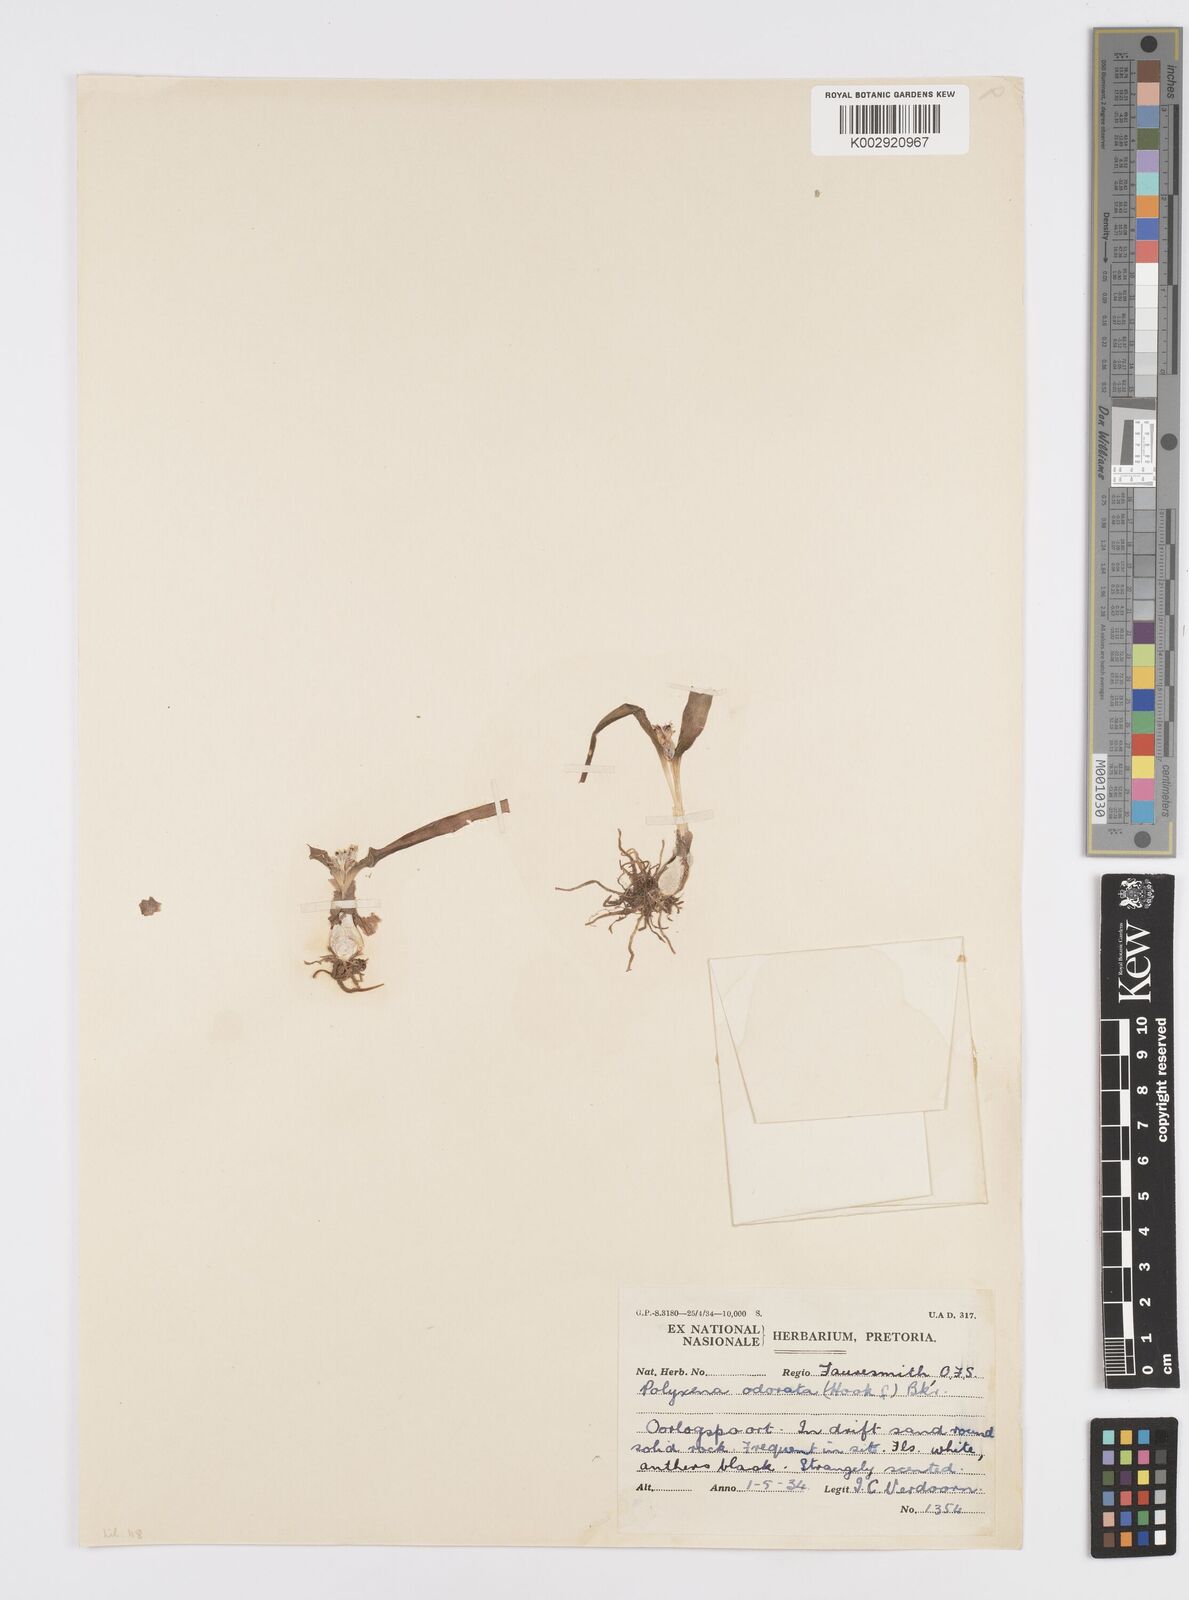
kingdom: Plantae
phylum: Tracheophyta
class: Liliopsida
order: Asparagales
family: Asparagaceae
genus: Lachenalia
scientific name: Lachenalia ensifolia
